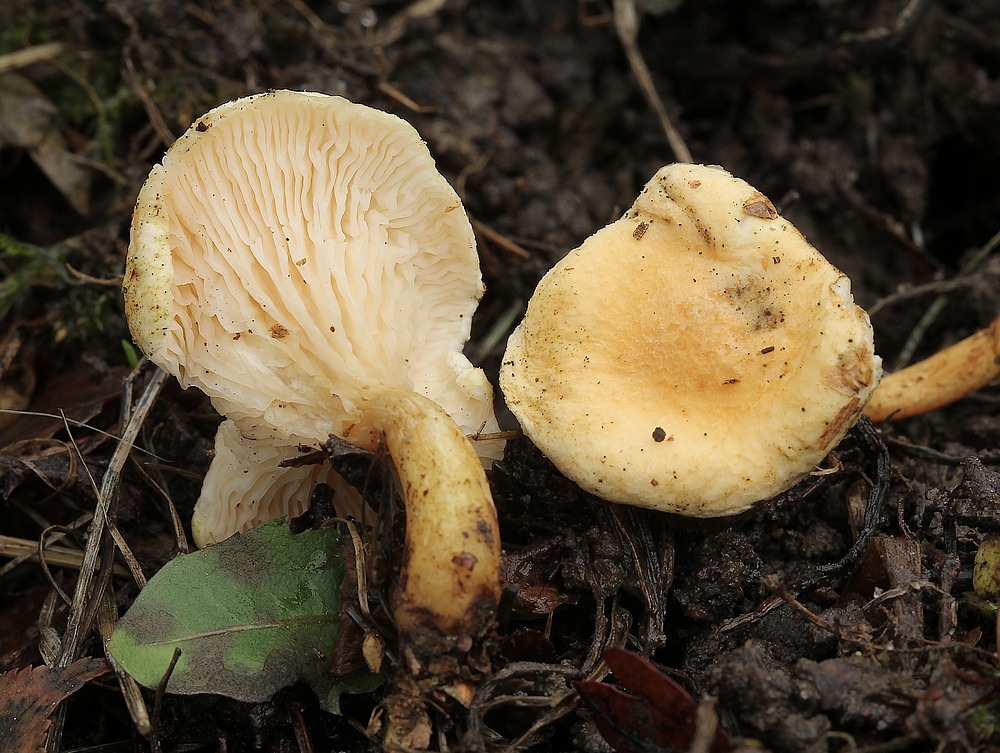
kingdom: Fungi
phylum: Basidiomycota
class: Agaricomycetes
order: Boletales
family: Hygrophoropsidaceae
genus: Hygrophoropsis
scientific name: Hygrophoropsis pallida
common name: bleg orangekantarel
